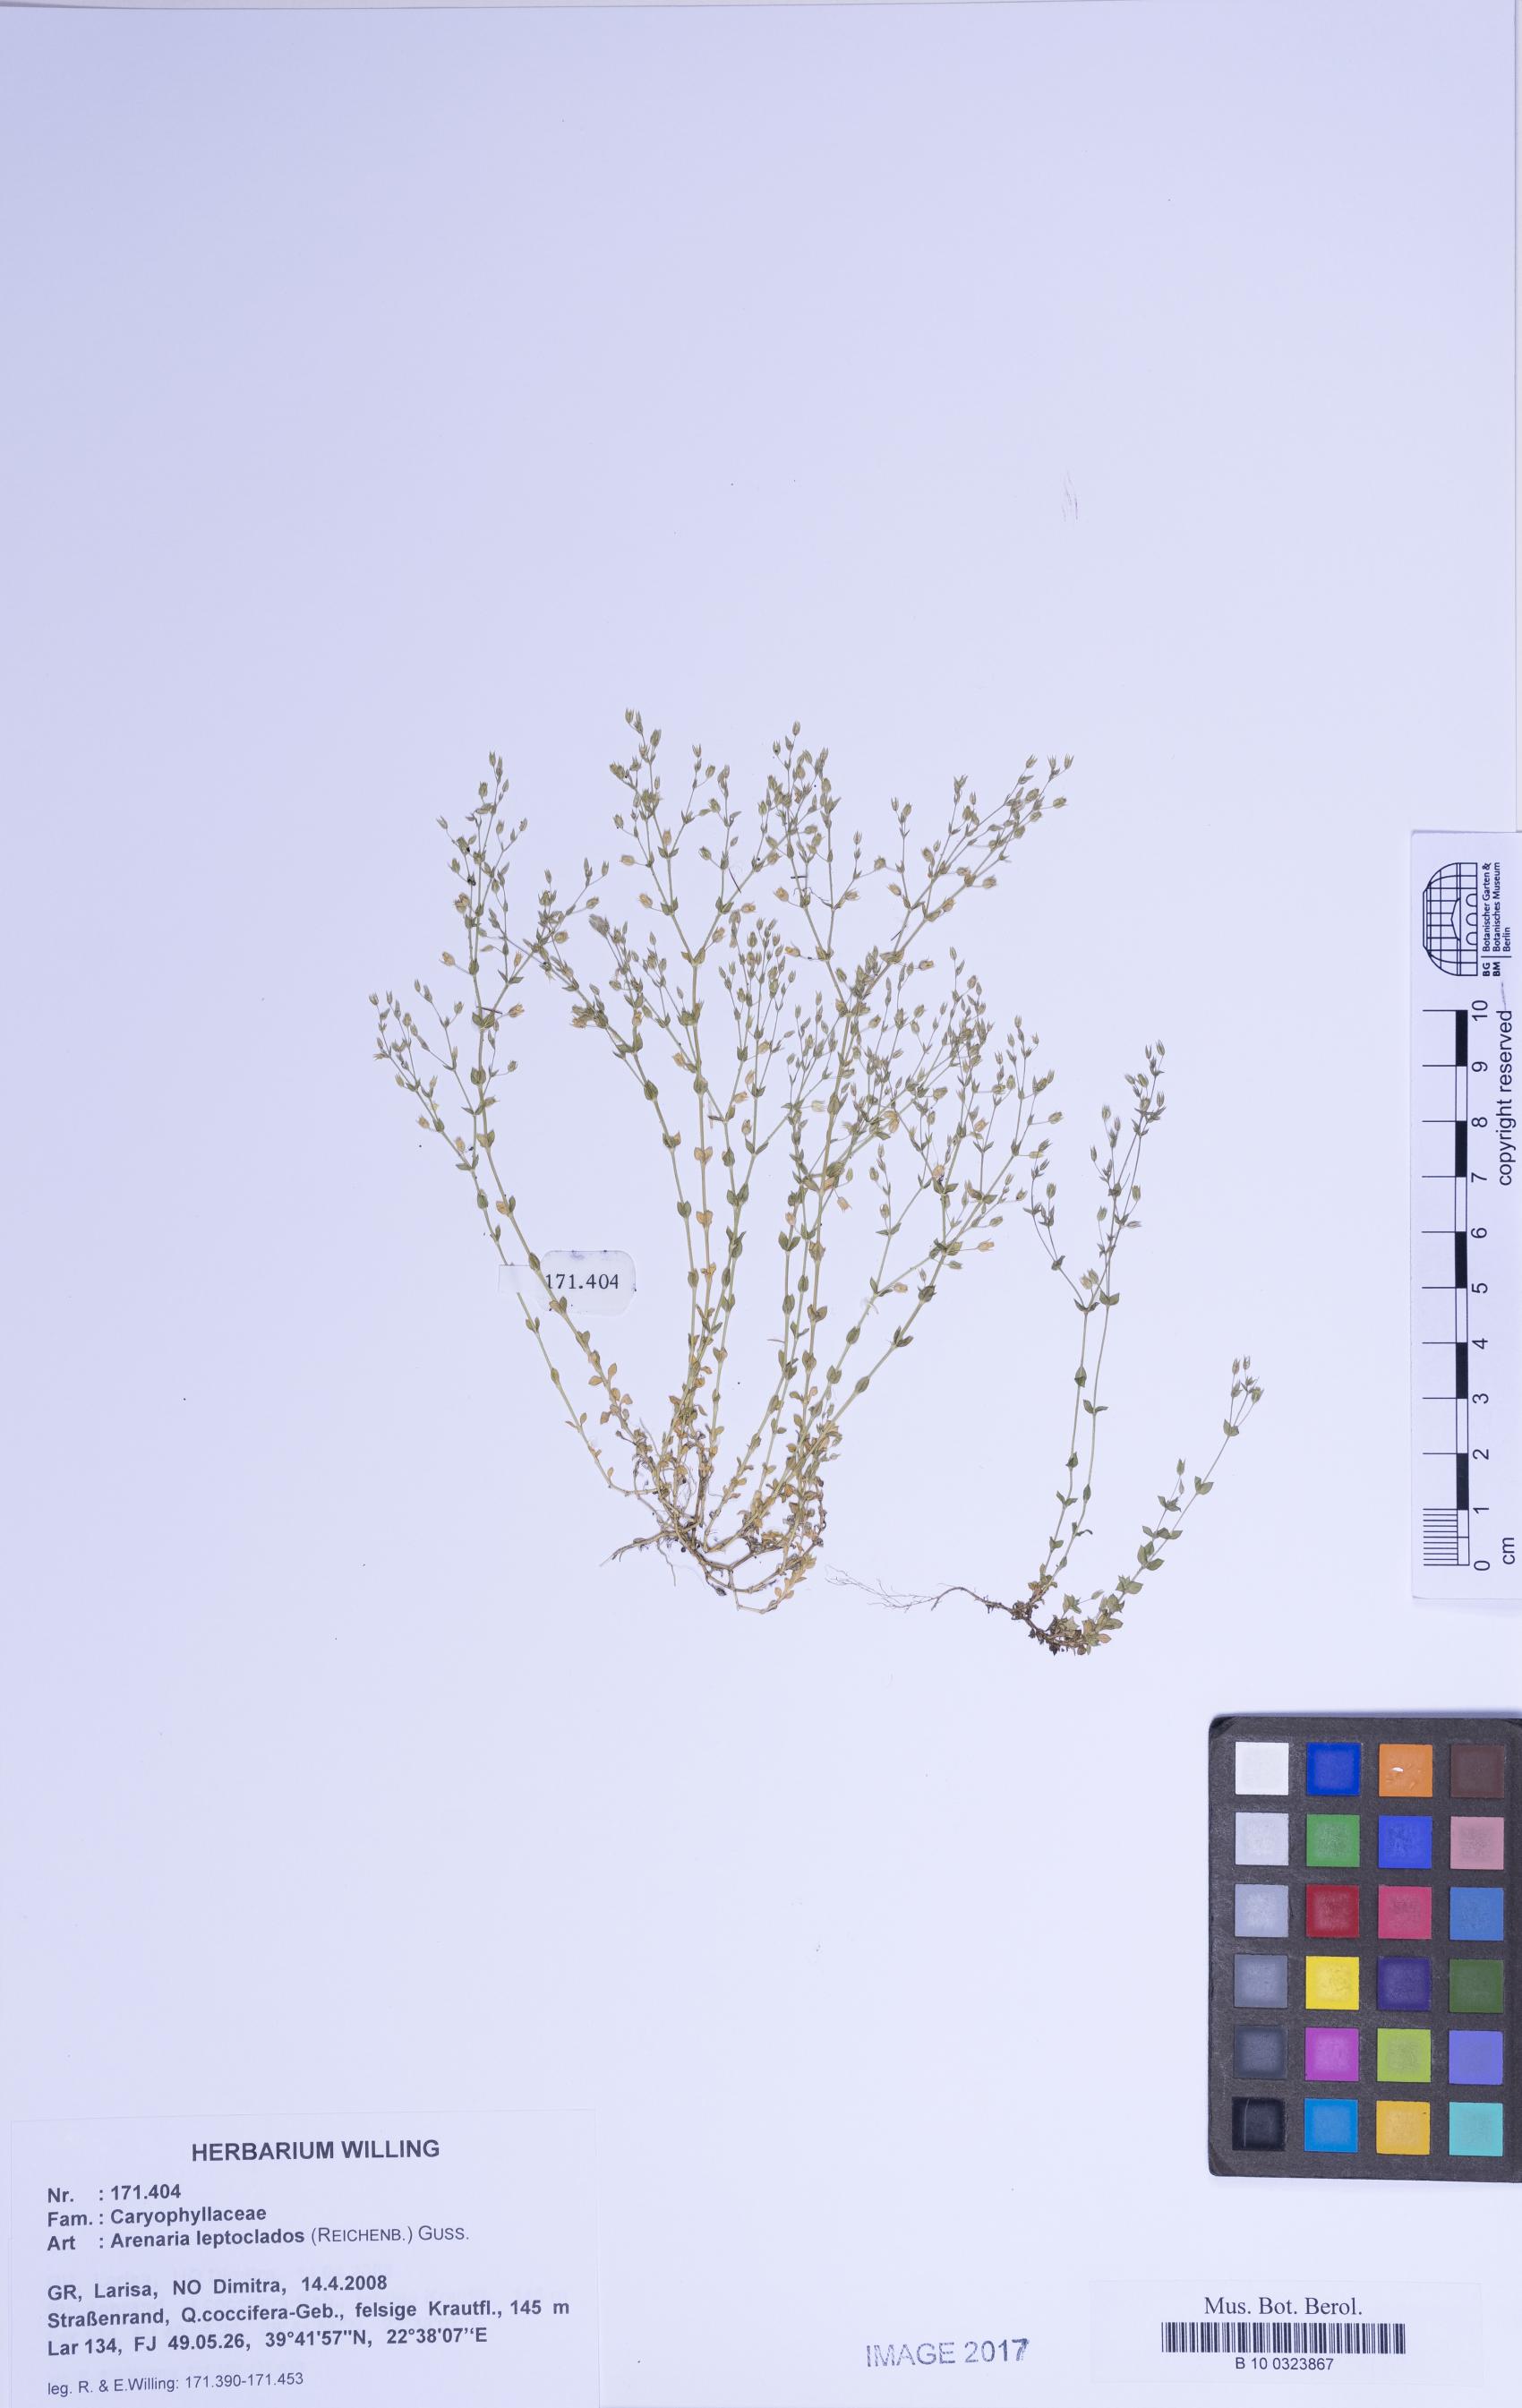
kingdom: Plantae
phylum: Tracheophyta
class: Magnoliopsida
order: Caryophyllales
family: Caryophyllaceae
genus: Arenaria
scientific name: Arenaria leptoclados
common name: Thyme-leaved sandwort
